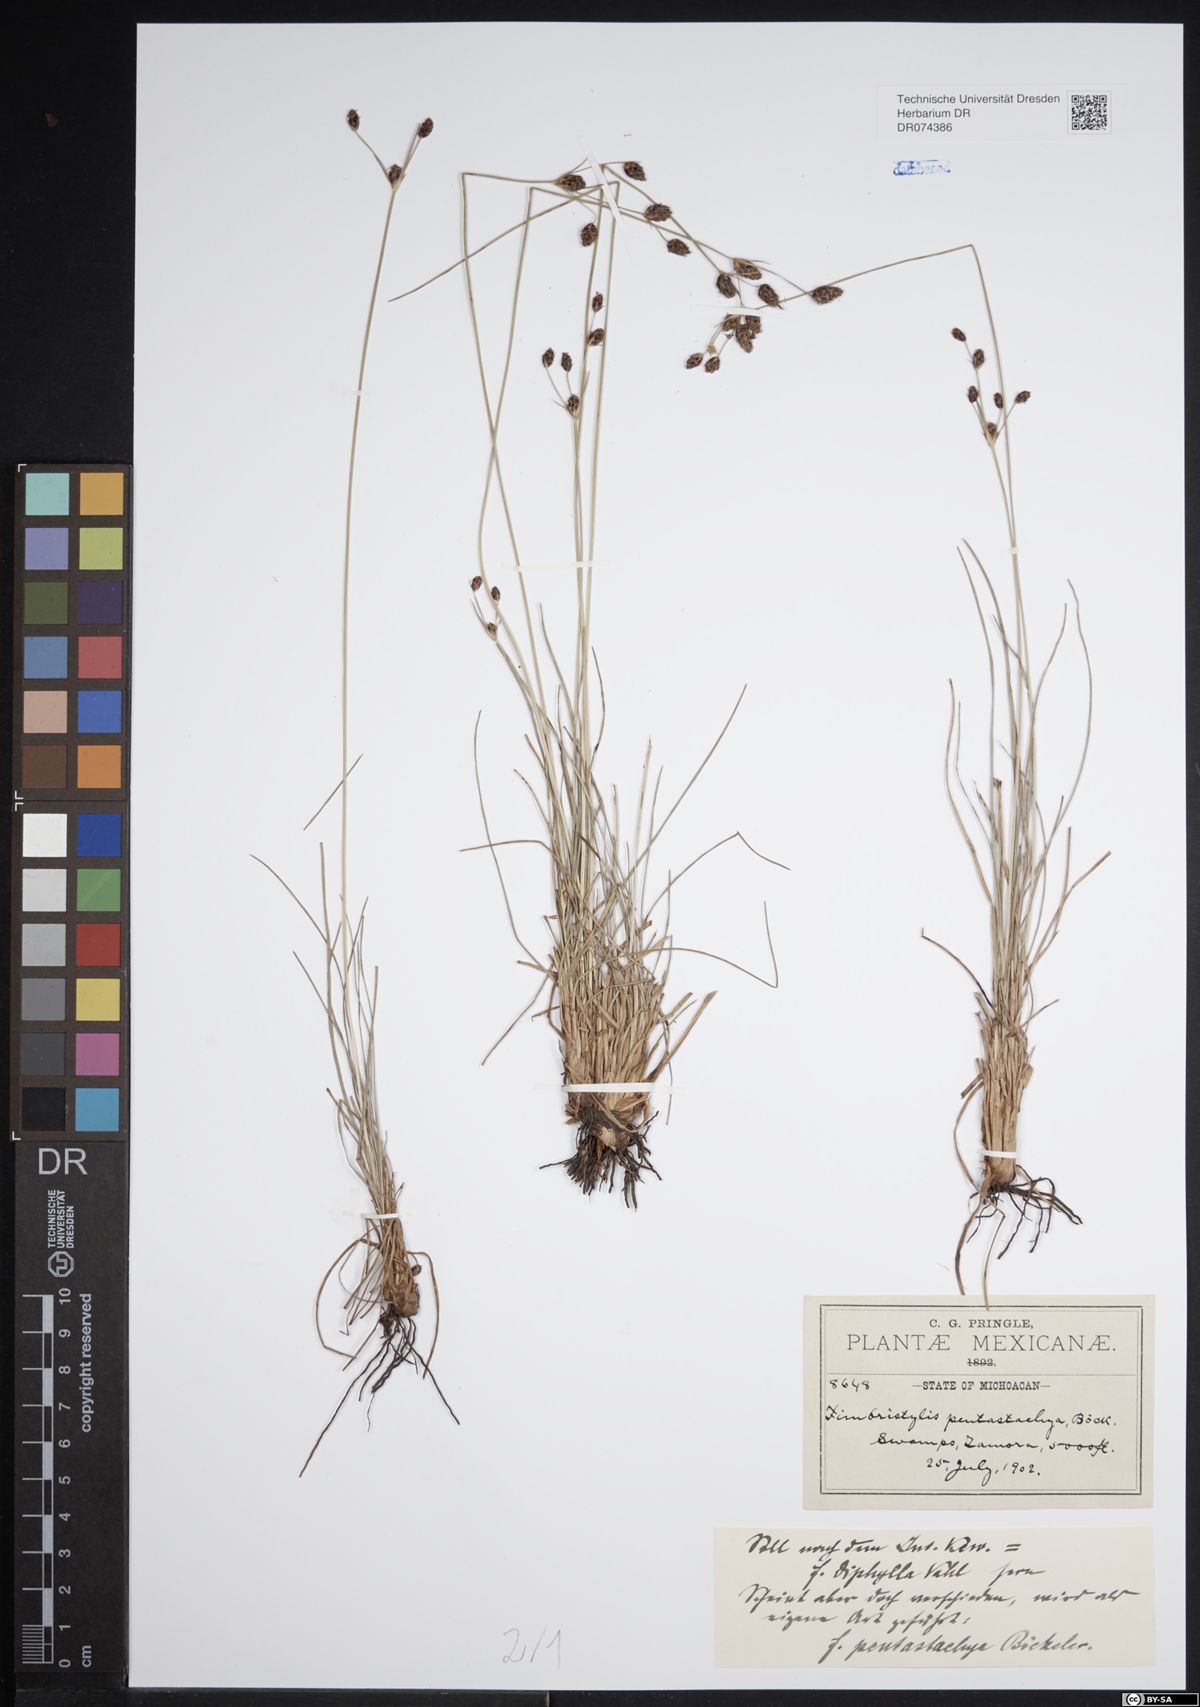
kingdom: Plantae
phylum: Tracheophyta
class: Liliopsida
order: Poales
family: Cyperaceae
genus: Fimbristylis
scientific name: Fimbristylis pentastachya
